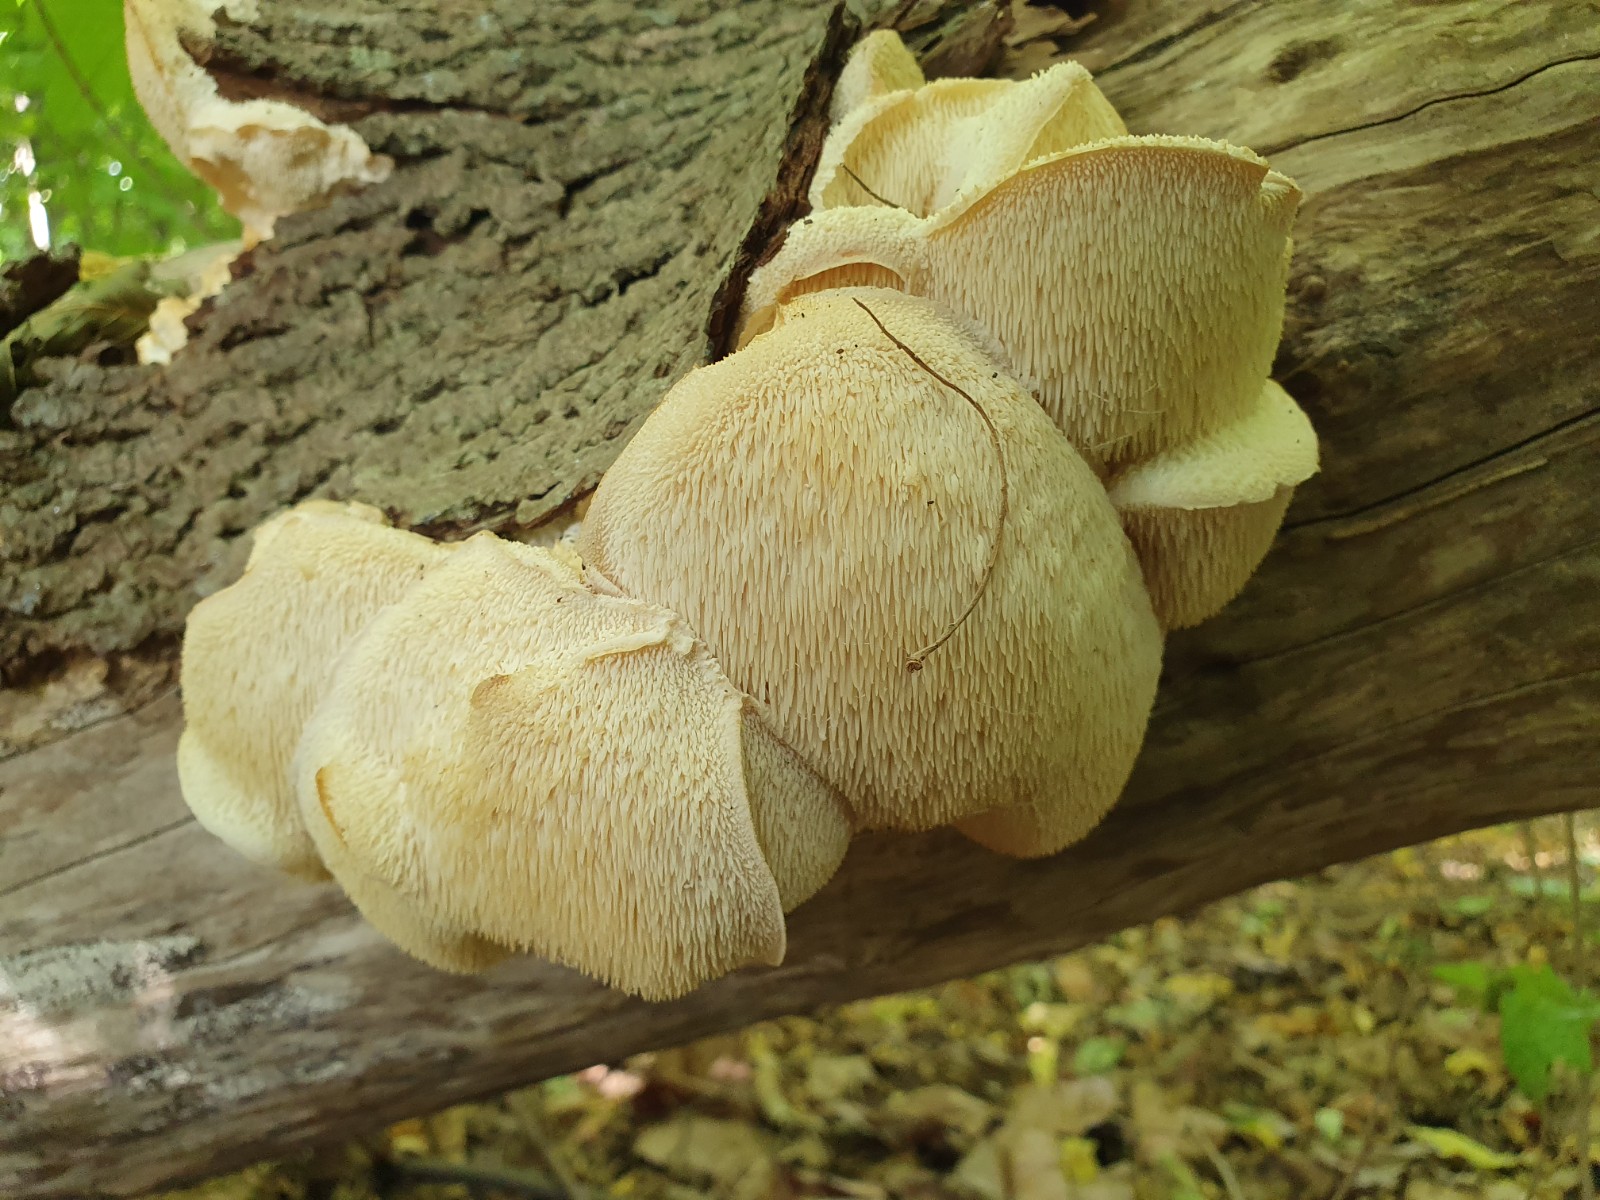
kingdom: Fungi
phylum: Basidiomycota
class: Agaricomycetes
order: Russulales
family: Hericiaceae
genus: Hericium
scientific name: Hericium cirrhatum
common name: børstepigsvamp
